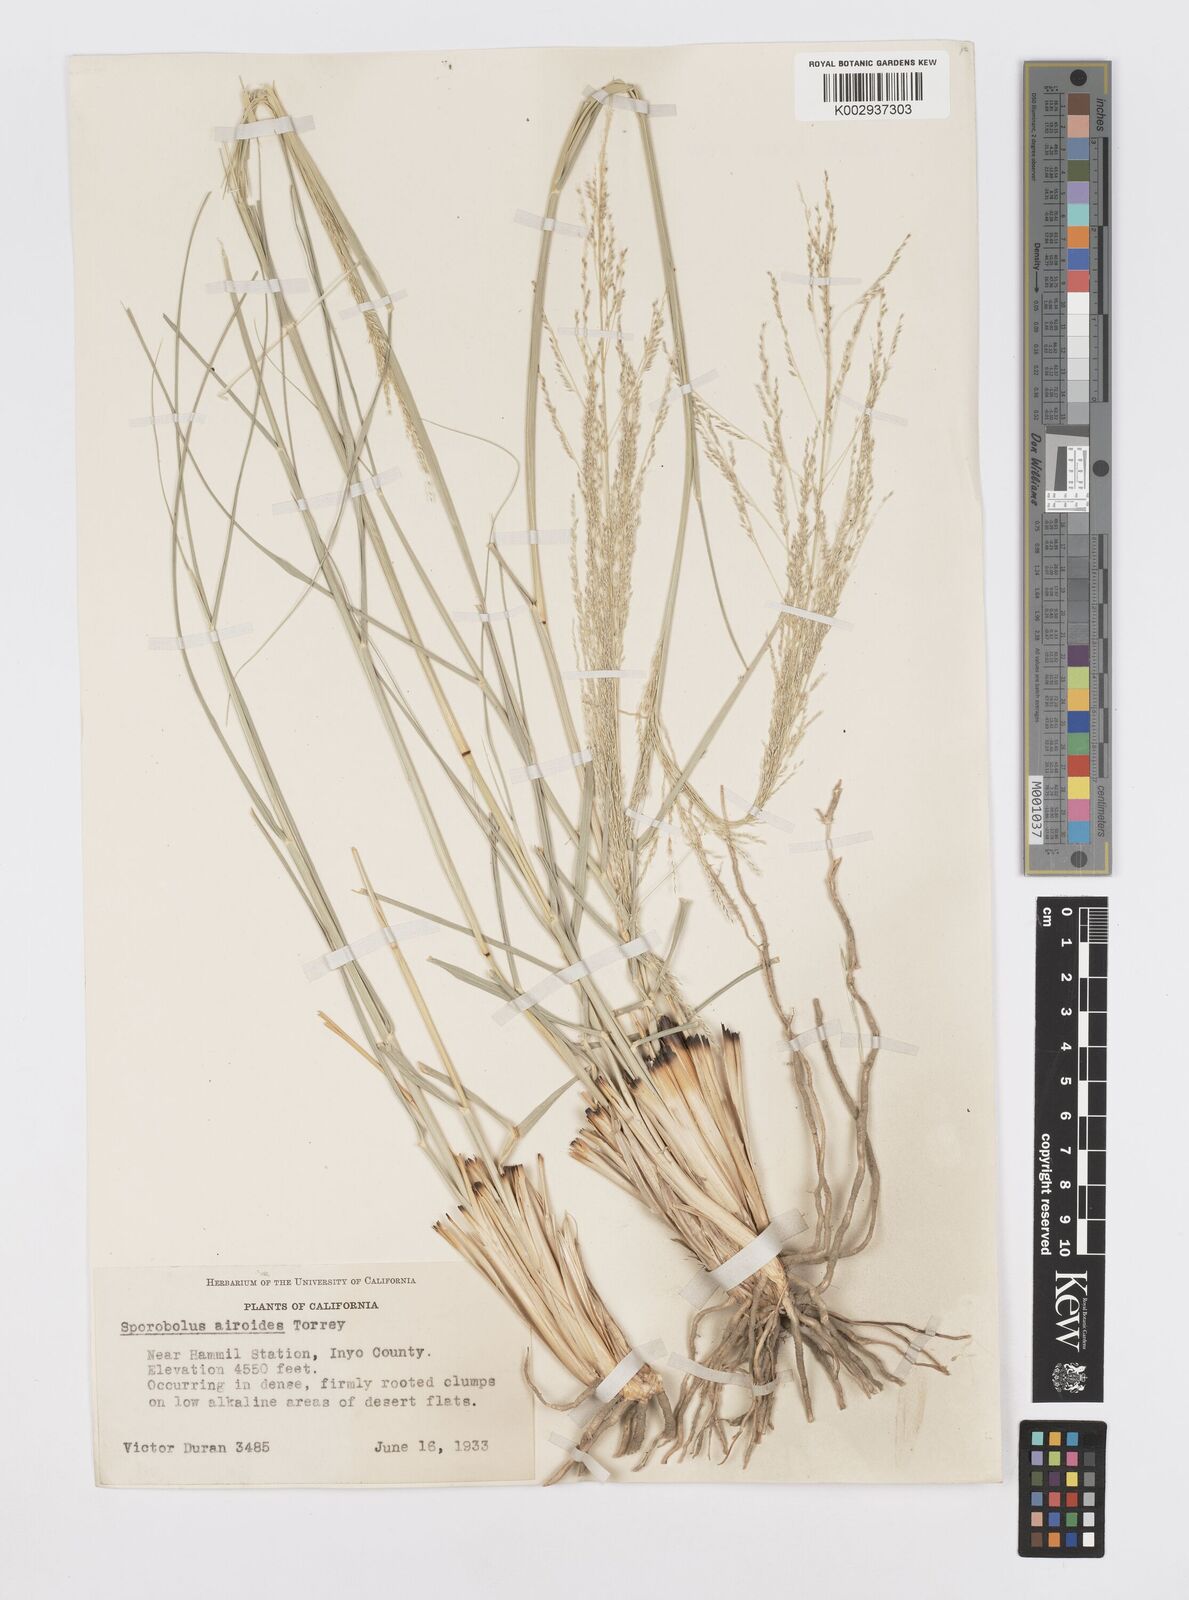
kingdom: Plantae
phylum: Tracheophyta
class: Liliopsida
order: Poales
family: Poaceae
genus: Sporobolus
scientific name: Sporobolus airoides
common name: Alkali sacaton
